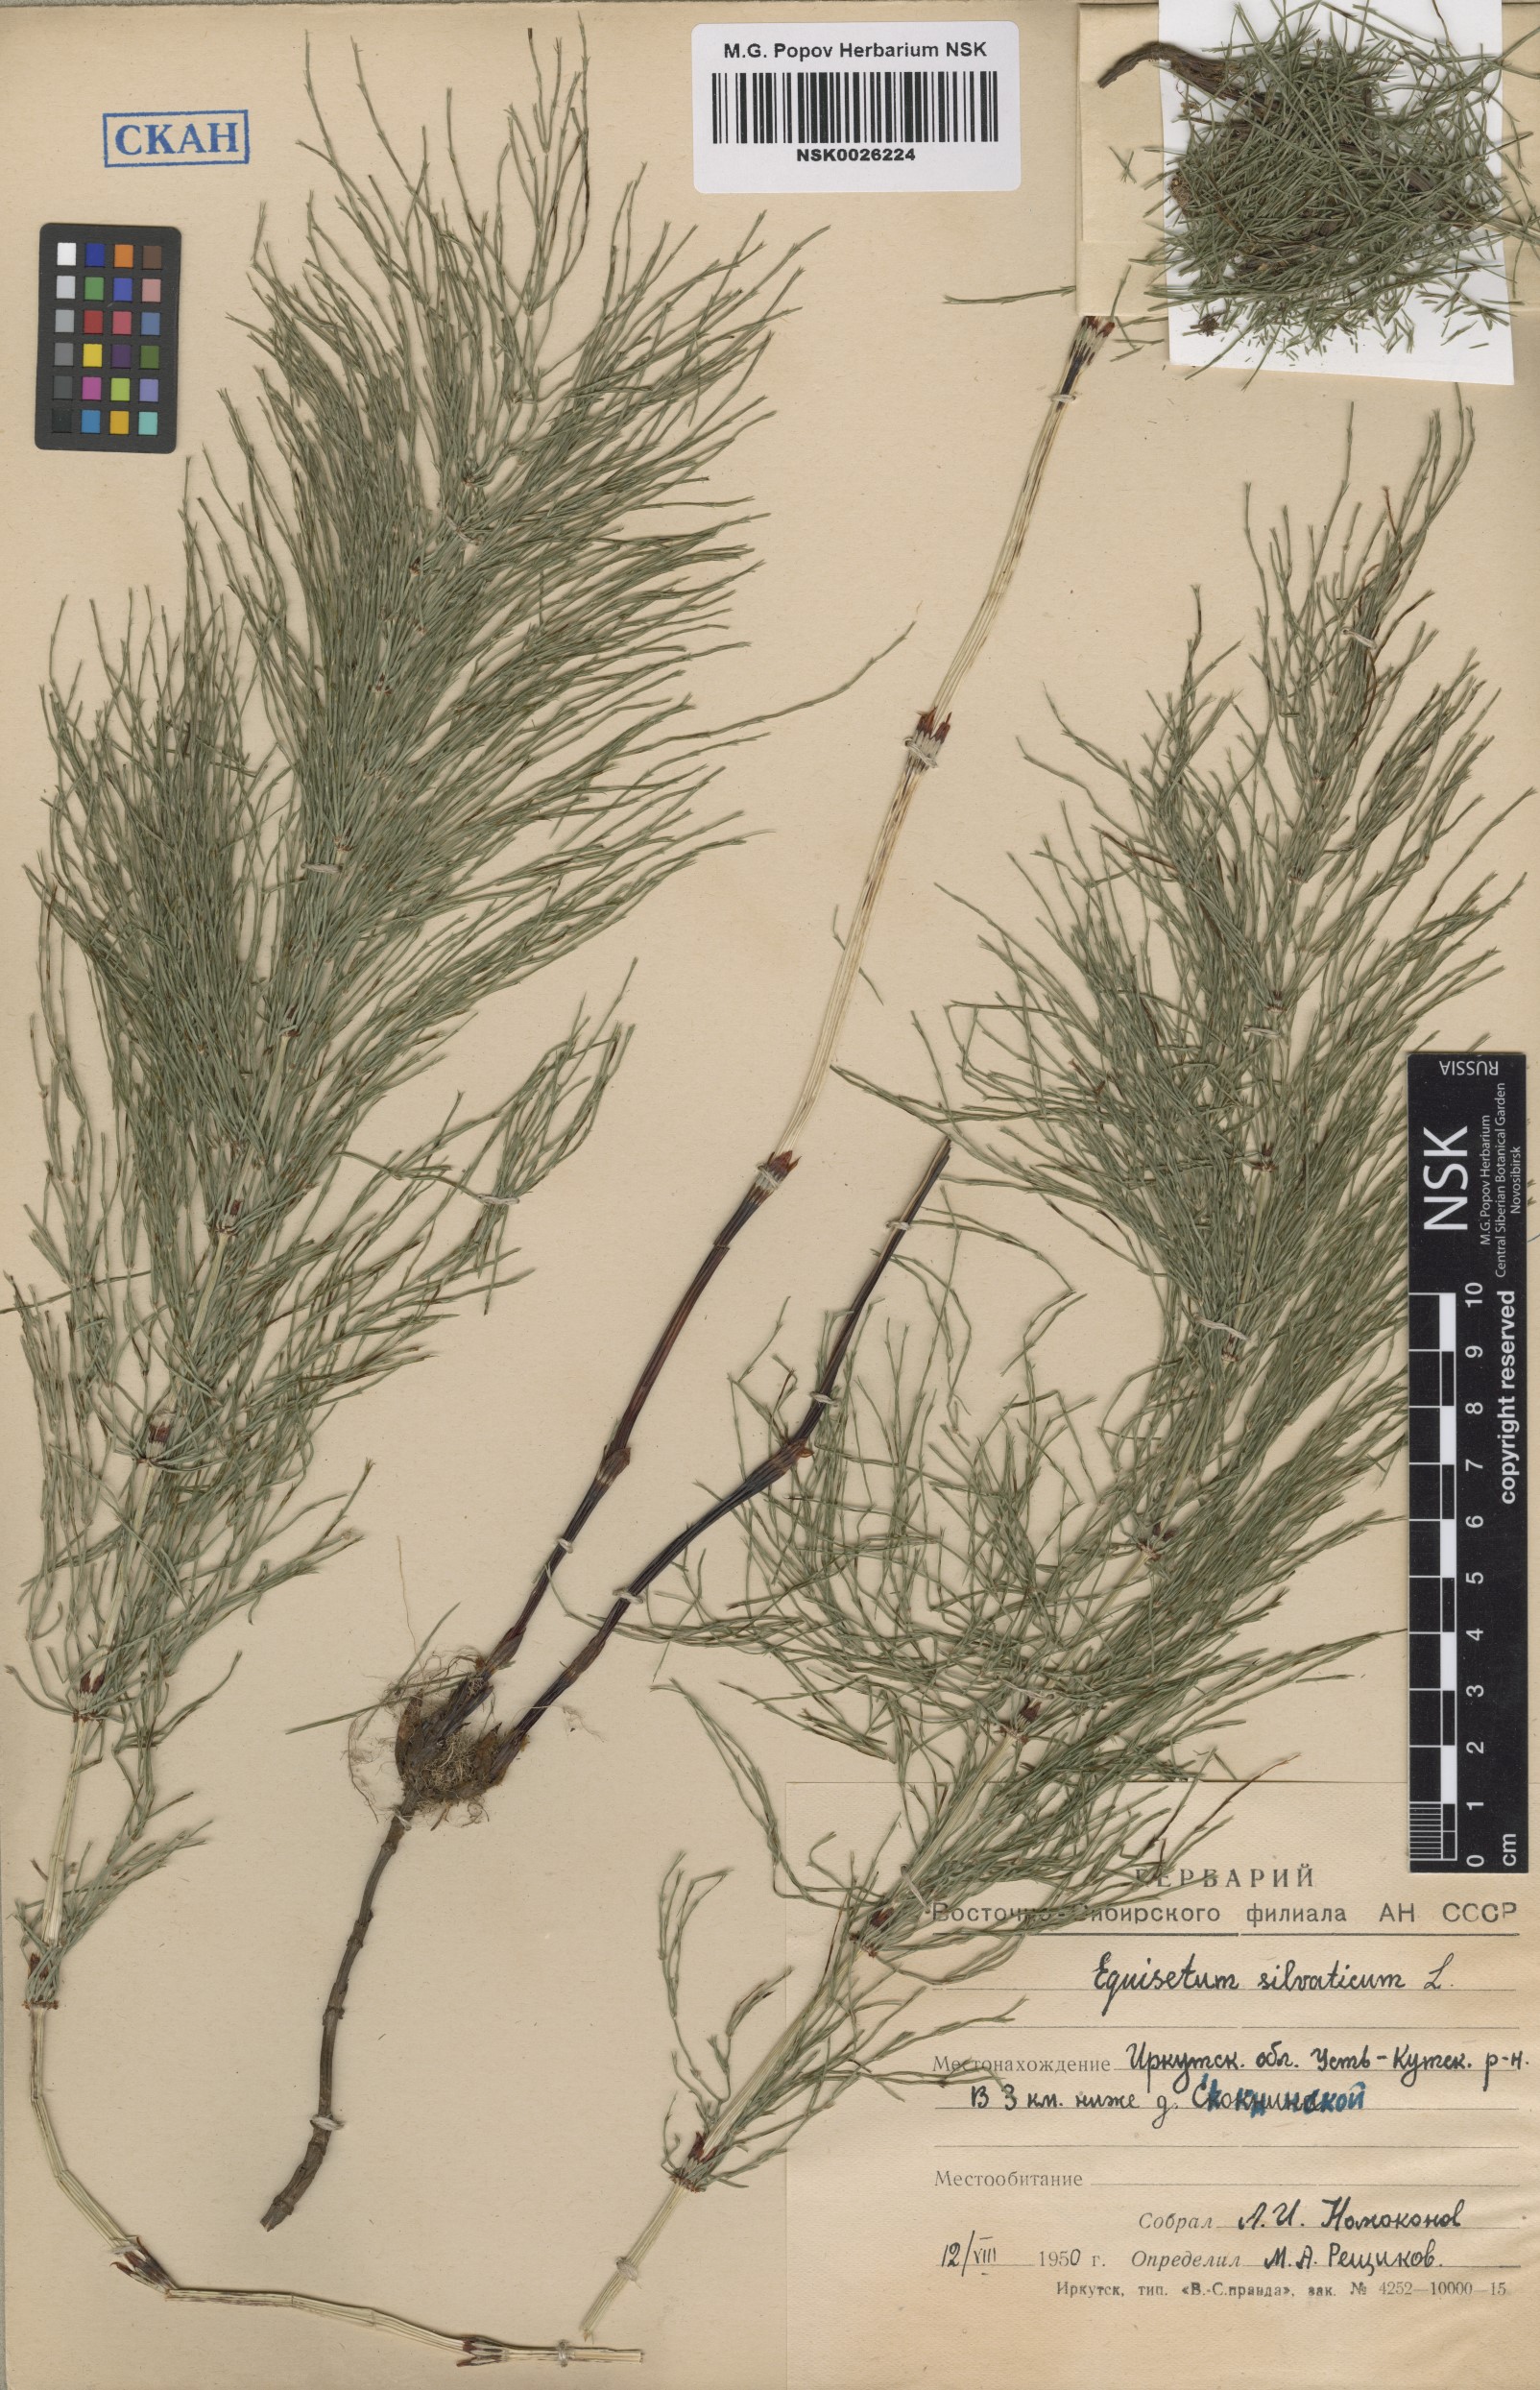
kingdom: Plantae
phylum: Tracheophyta
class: Polypodiopsida
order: Equisetales
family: Equisetaceae
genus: Equisetum
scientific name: Equisetum sylvaticum
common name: Wood horsetail
